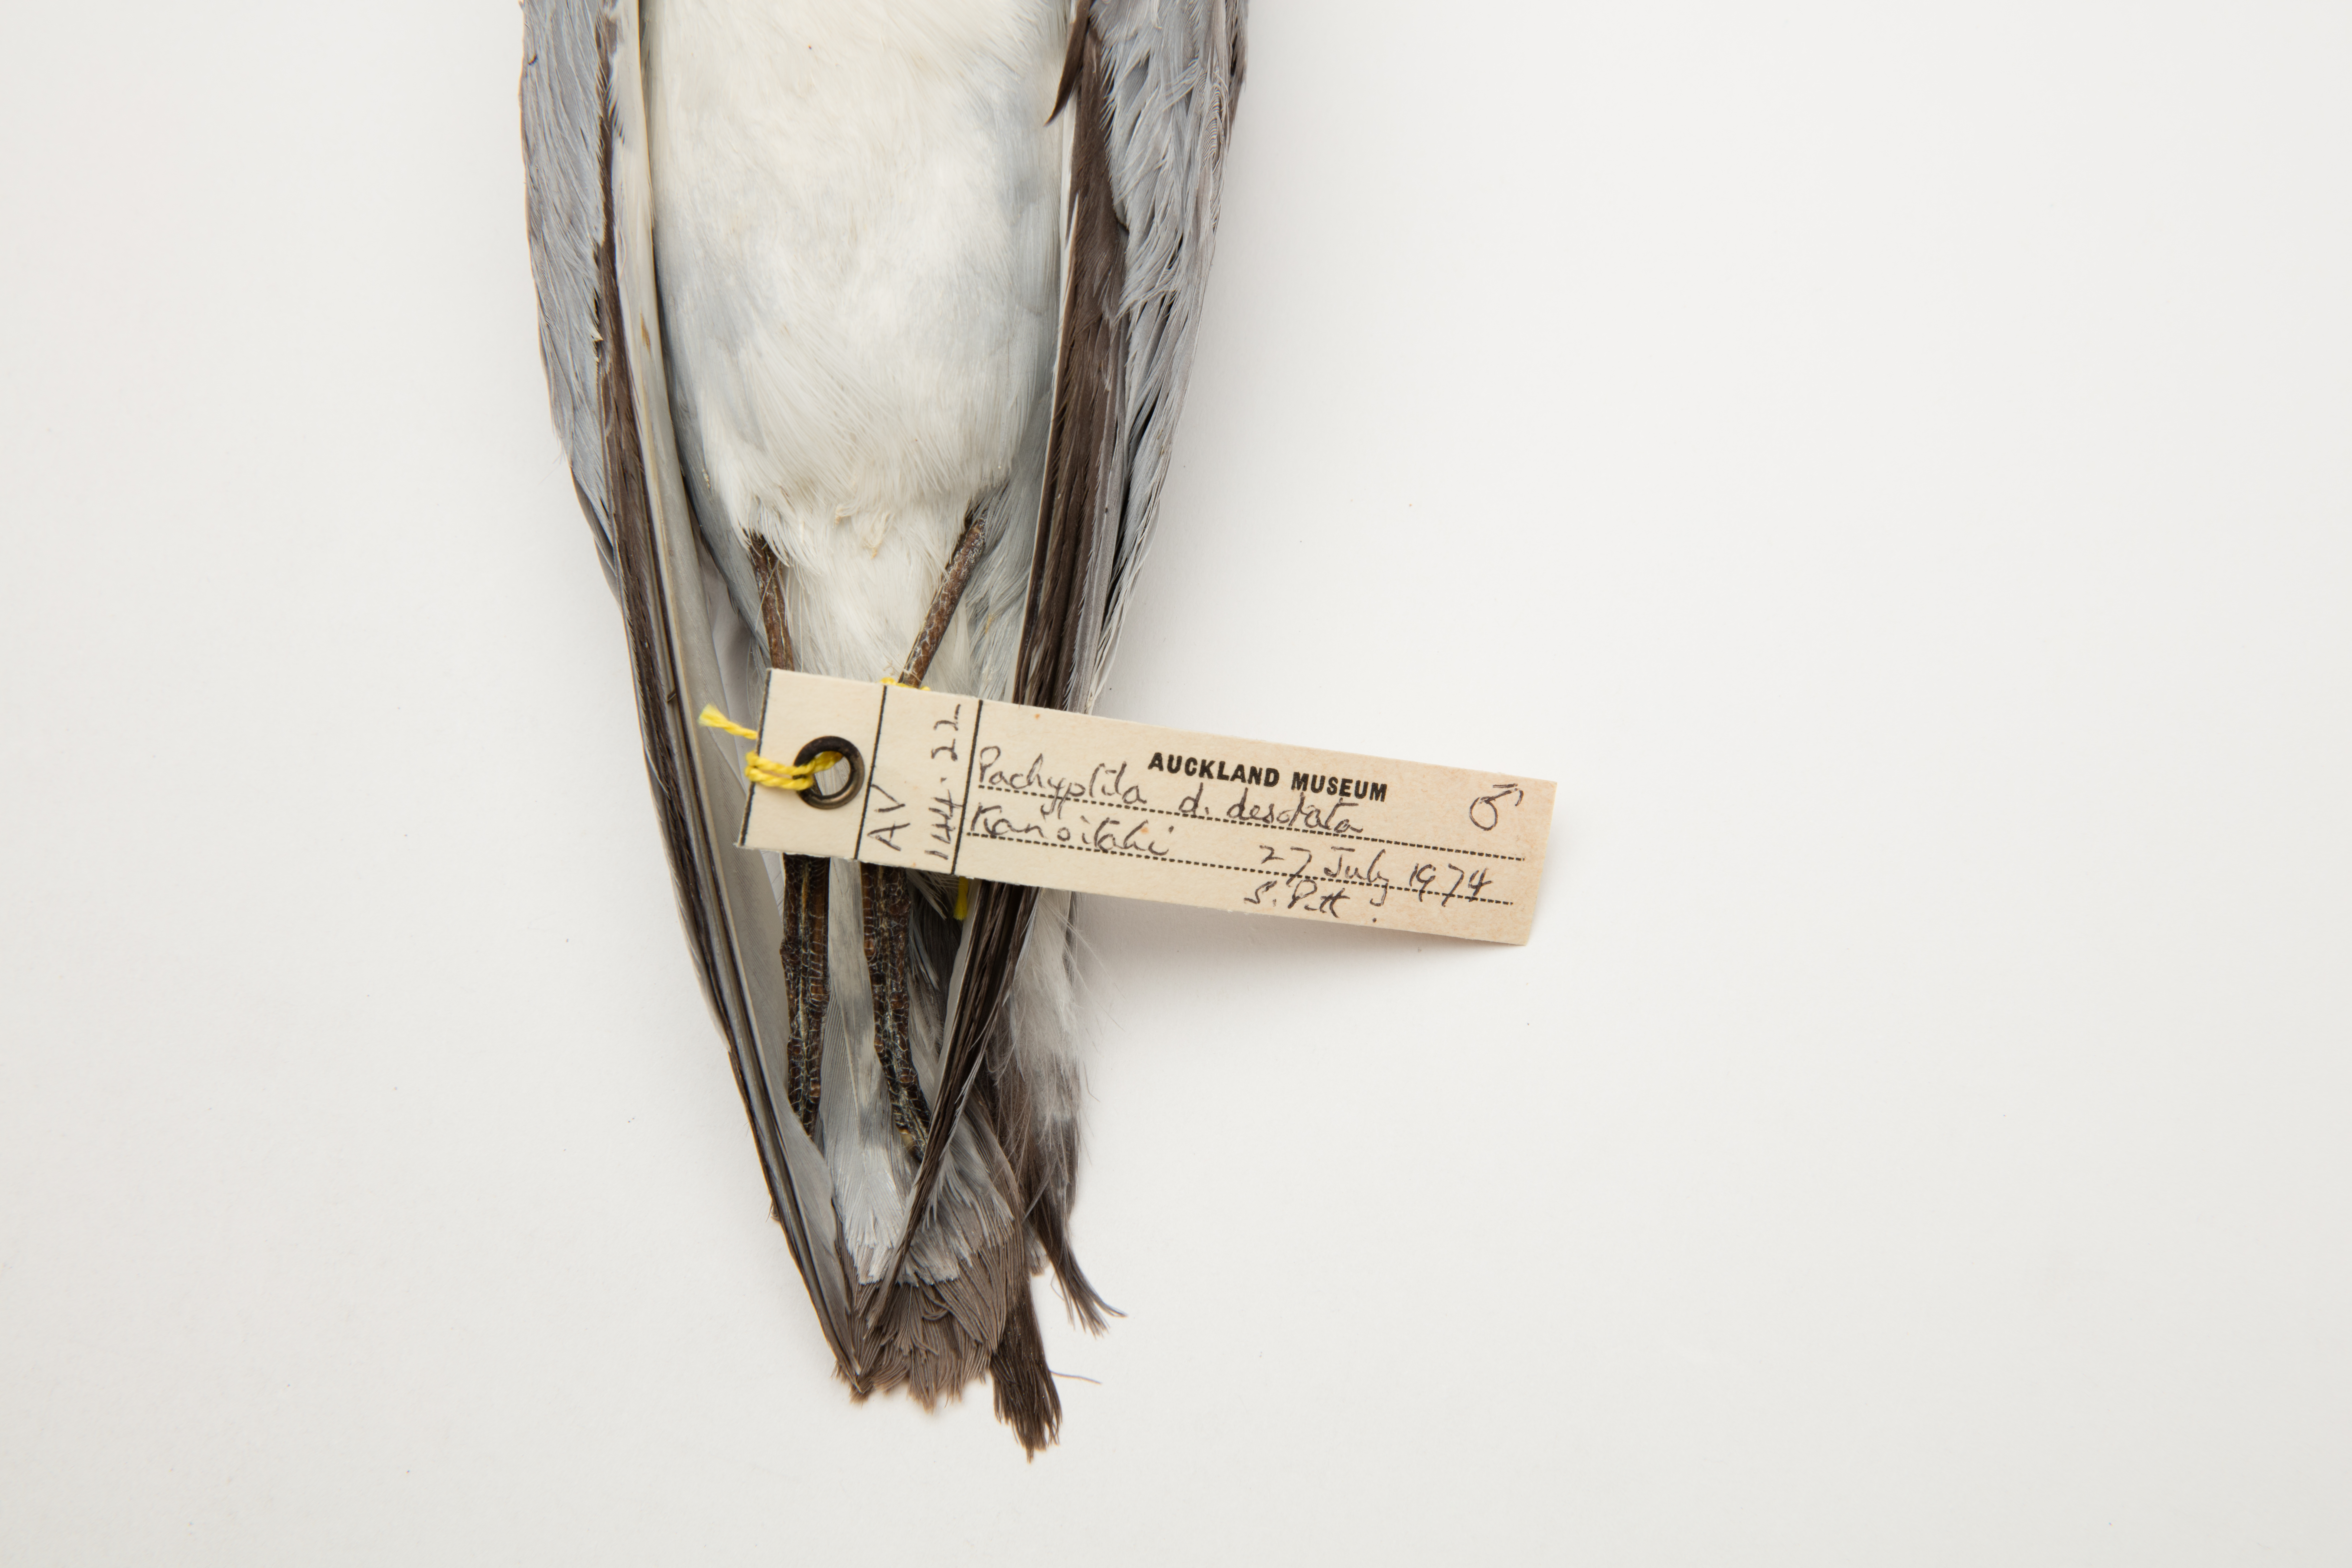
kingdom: Animalia
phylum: Chordata
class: Aves
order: Procellariiformes
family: Procellariidae
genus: Pachyptila
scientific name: Pachyptila desolata
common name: Antarctic prion
